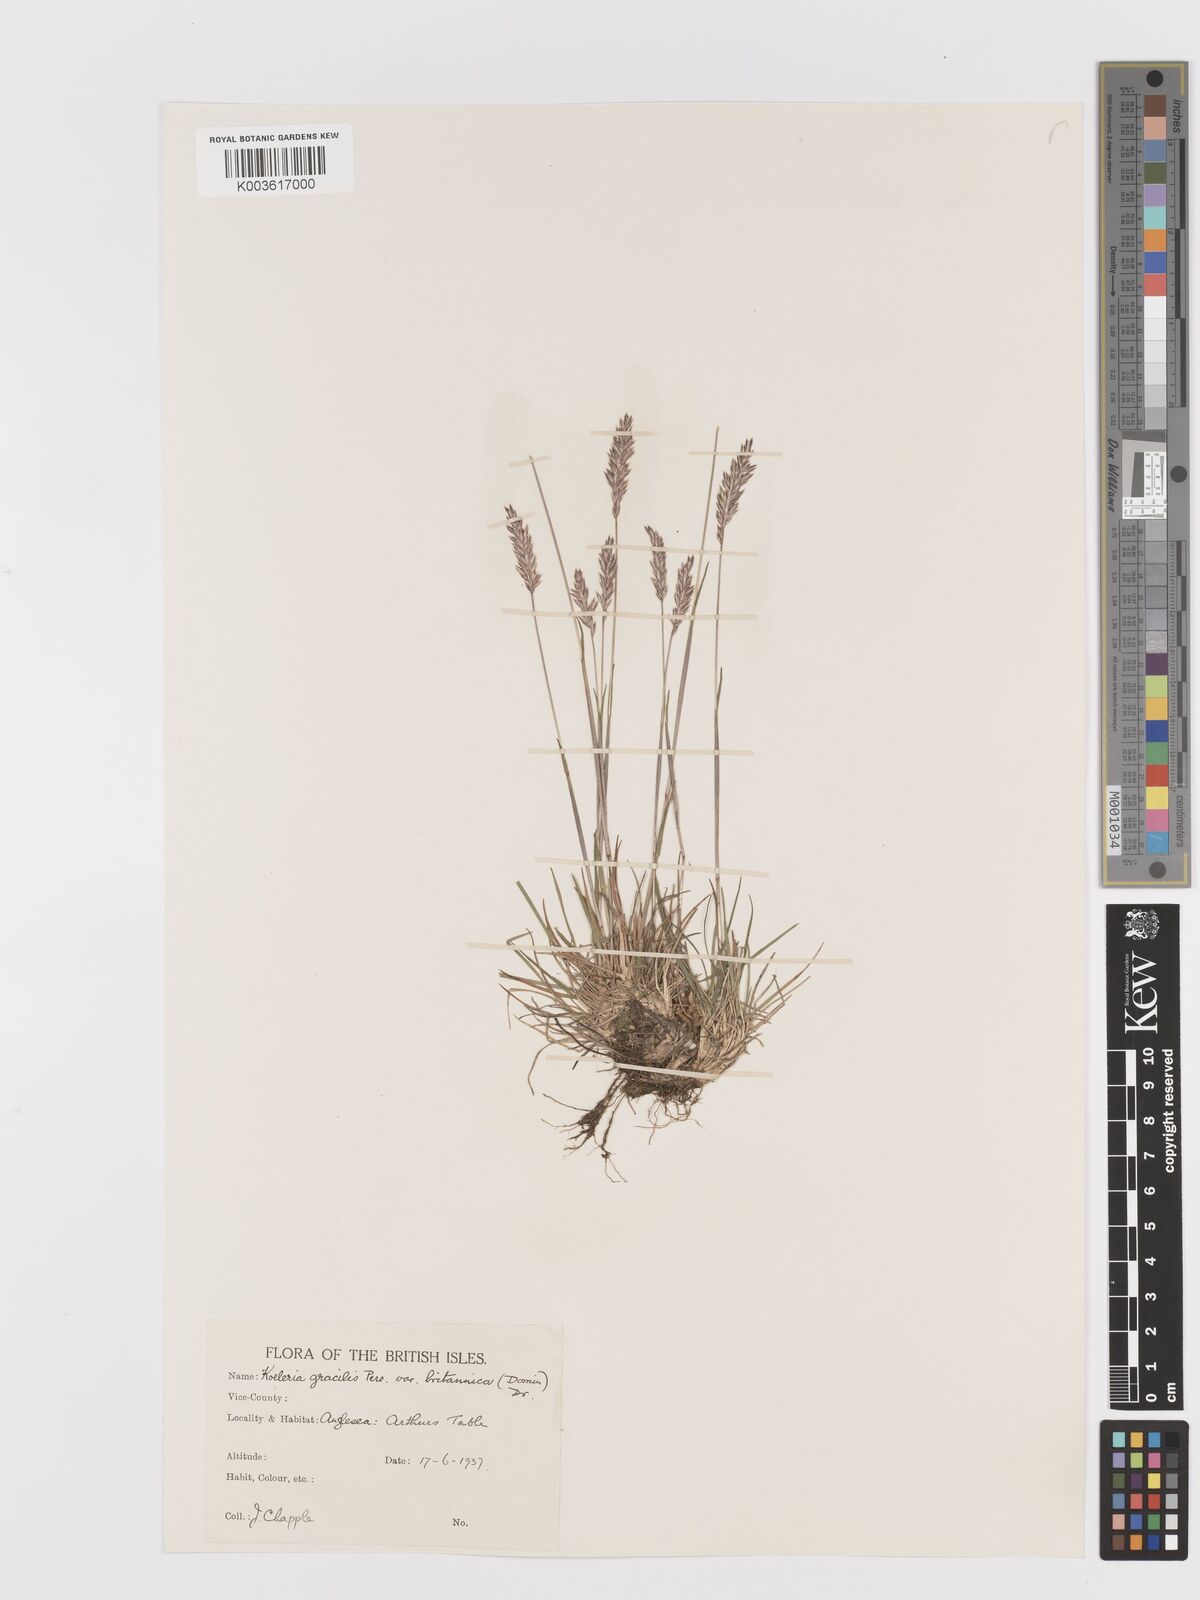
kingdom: Plantae
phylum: Tracheophyta
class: Liliopsida
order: Poales
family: Poaceae
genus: Koeleria
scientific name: Koeleria macrantha
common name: Crested hair-grass
